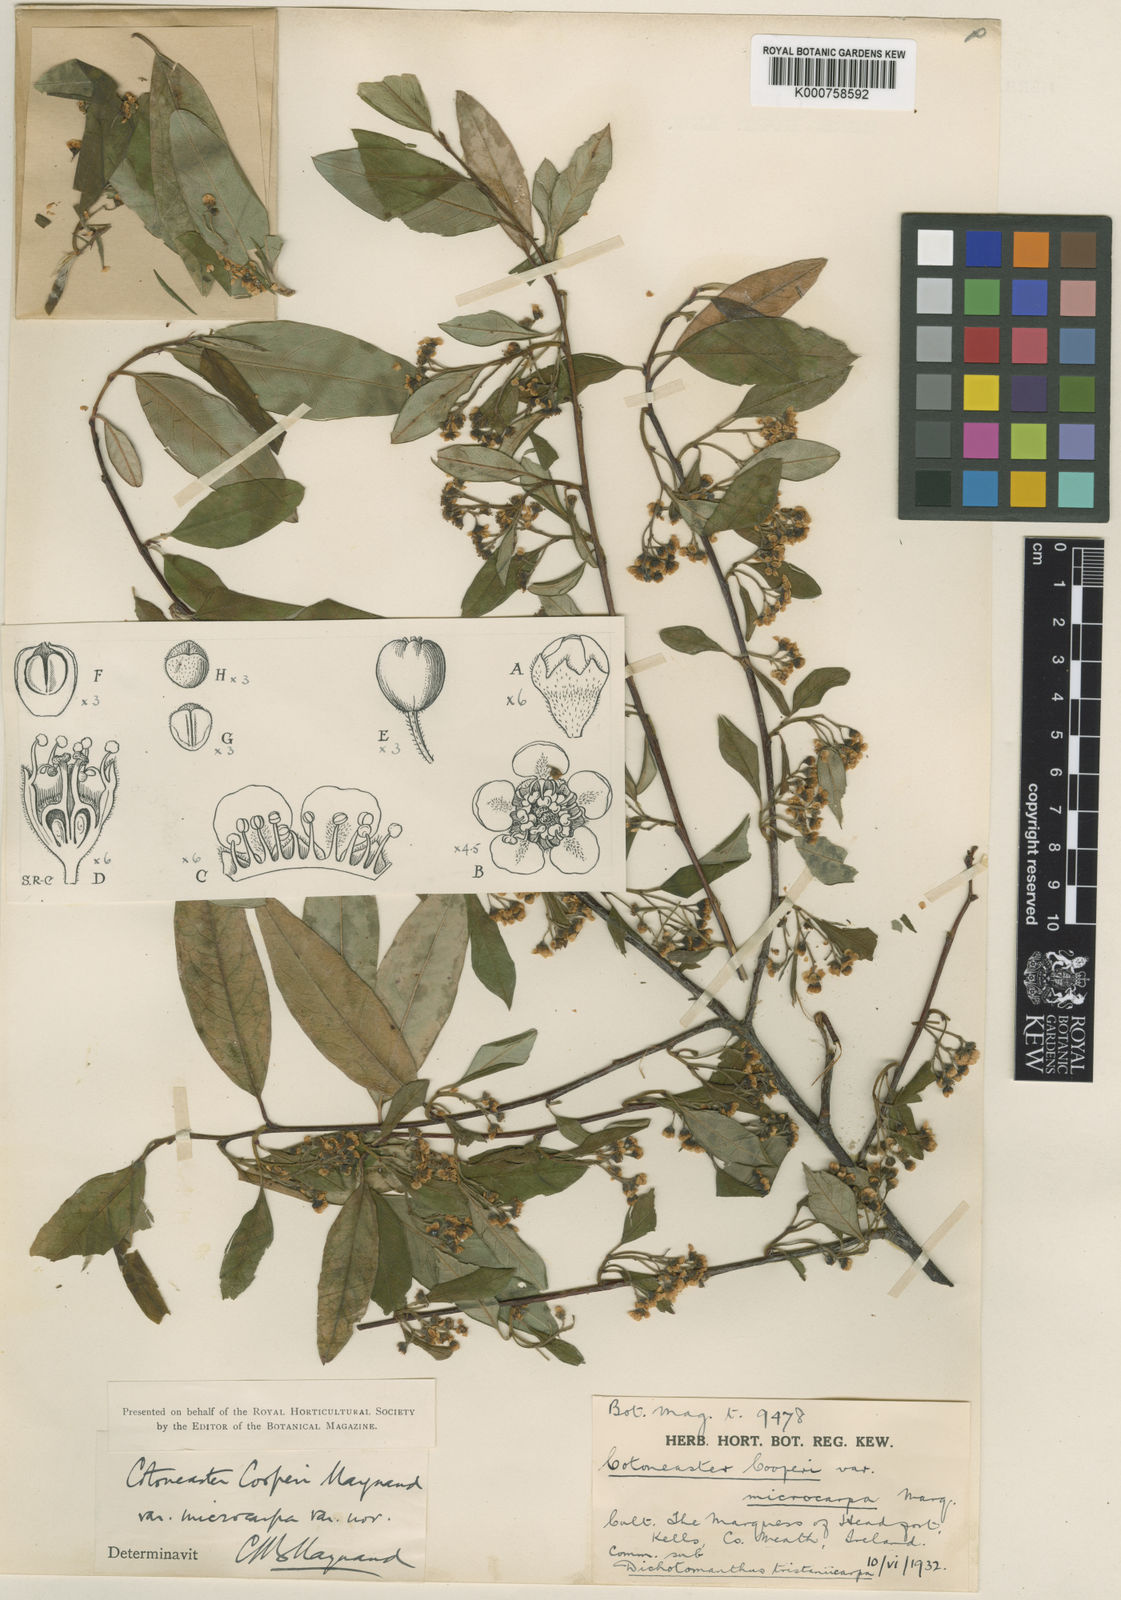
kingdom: Plantae
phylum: Tracheophyta
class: Magnoliopsida
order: Rosales
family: Rosaceae
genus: Cotoneaster
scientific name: Cotoneaster cooperi
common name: Cooper's cotoneaster
